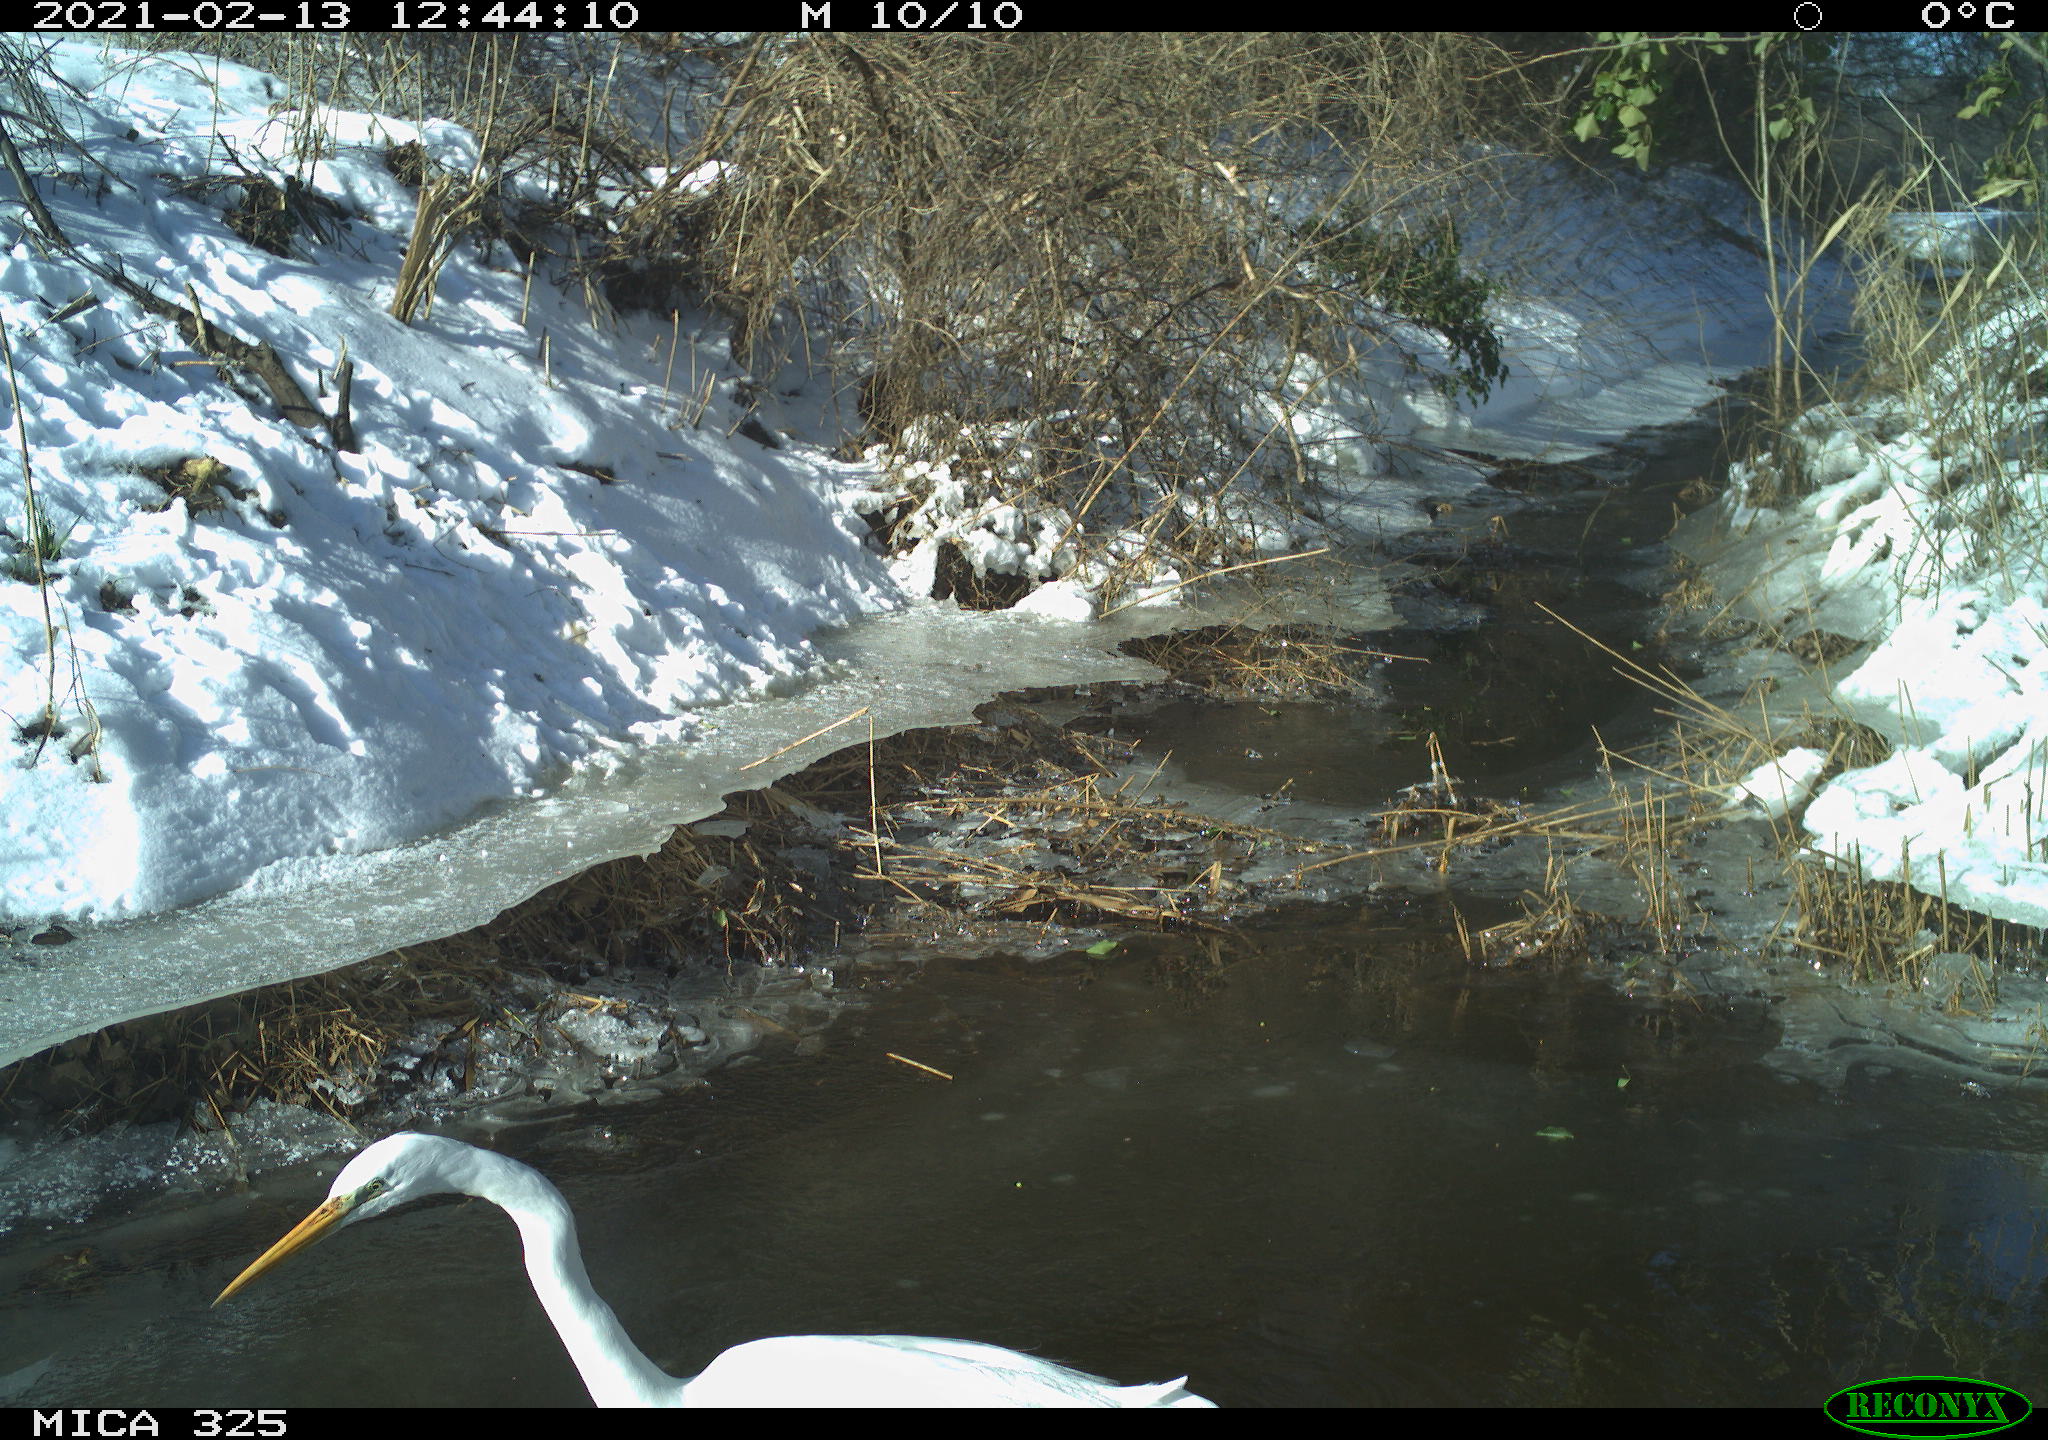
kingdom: Animalia
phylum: Chordata
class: Aves
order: Pelecaniformes
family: Ardeidae
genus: Ardea
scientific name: Ardea alba
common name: Great egret
